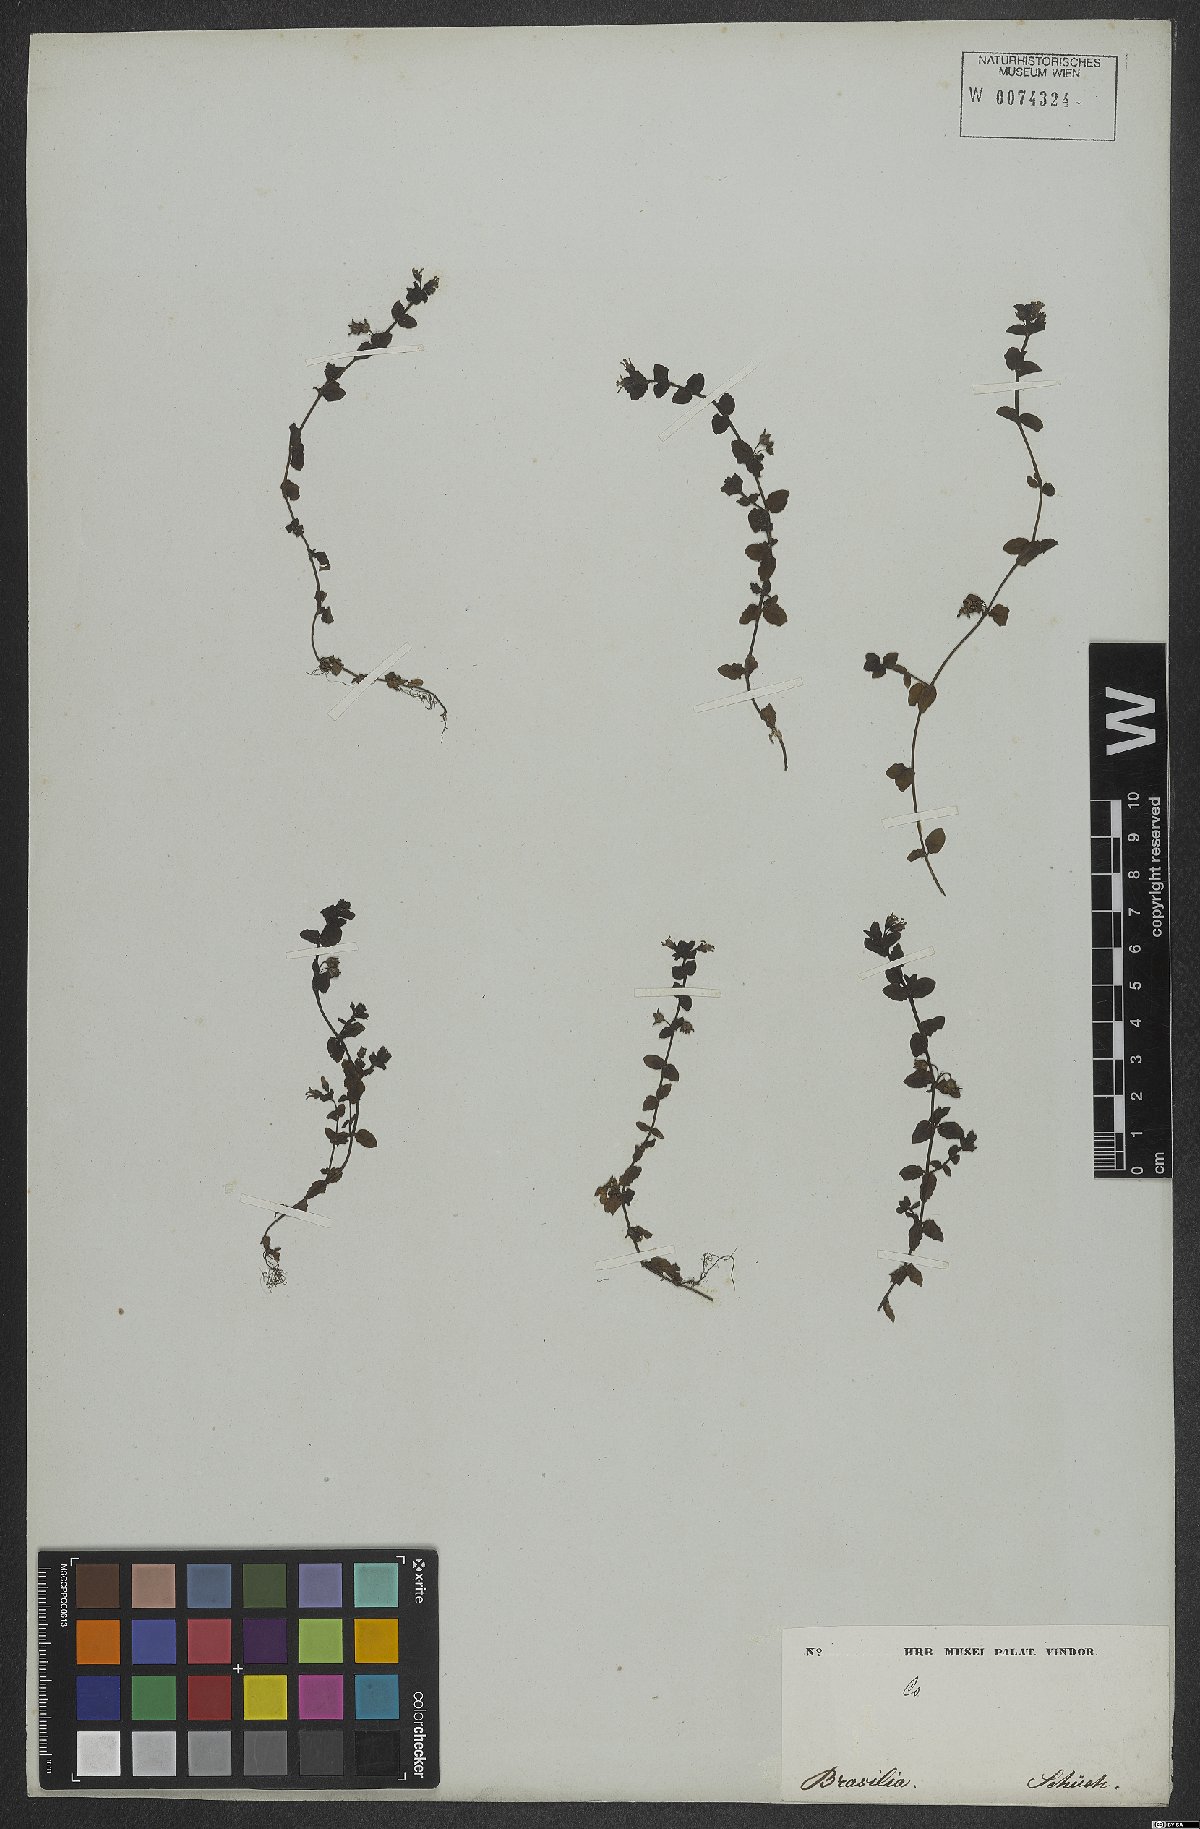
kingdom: Plantae
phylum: Tracheophyta
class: Magnoliopsida
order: Lamiales
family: Plantaginaceae
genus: Conobea
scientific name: Conobea
